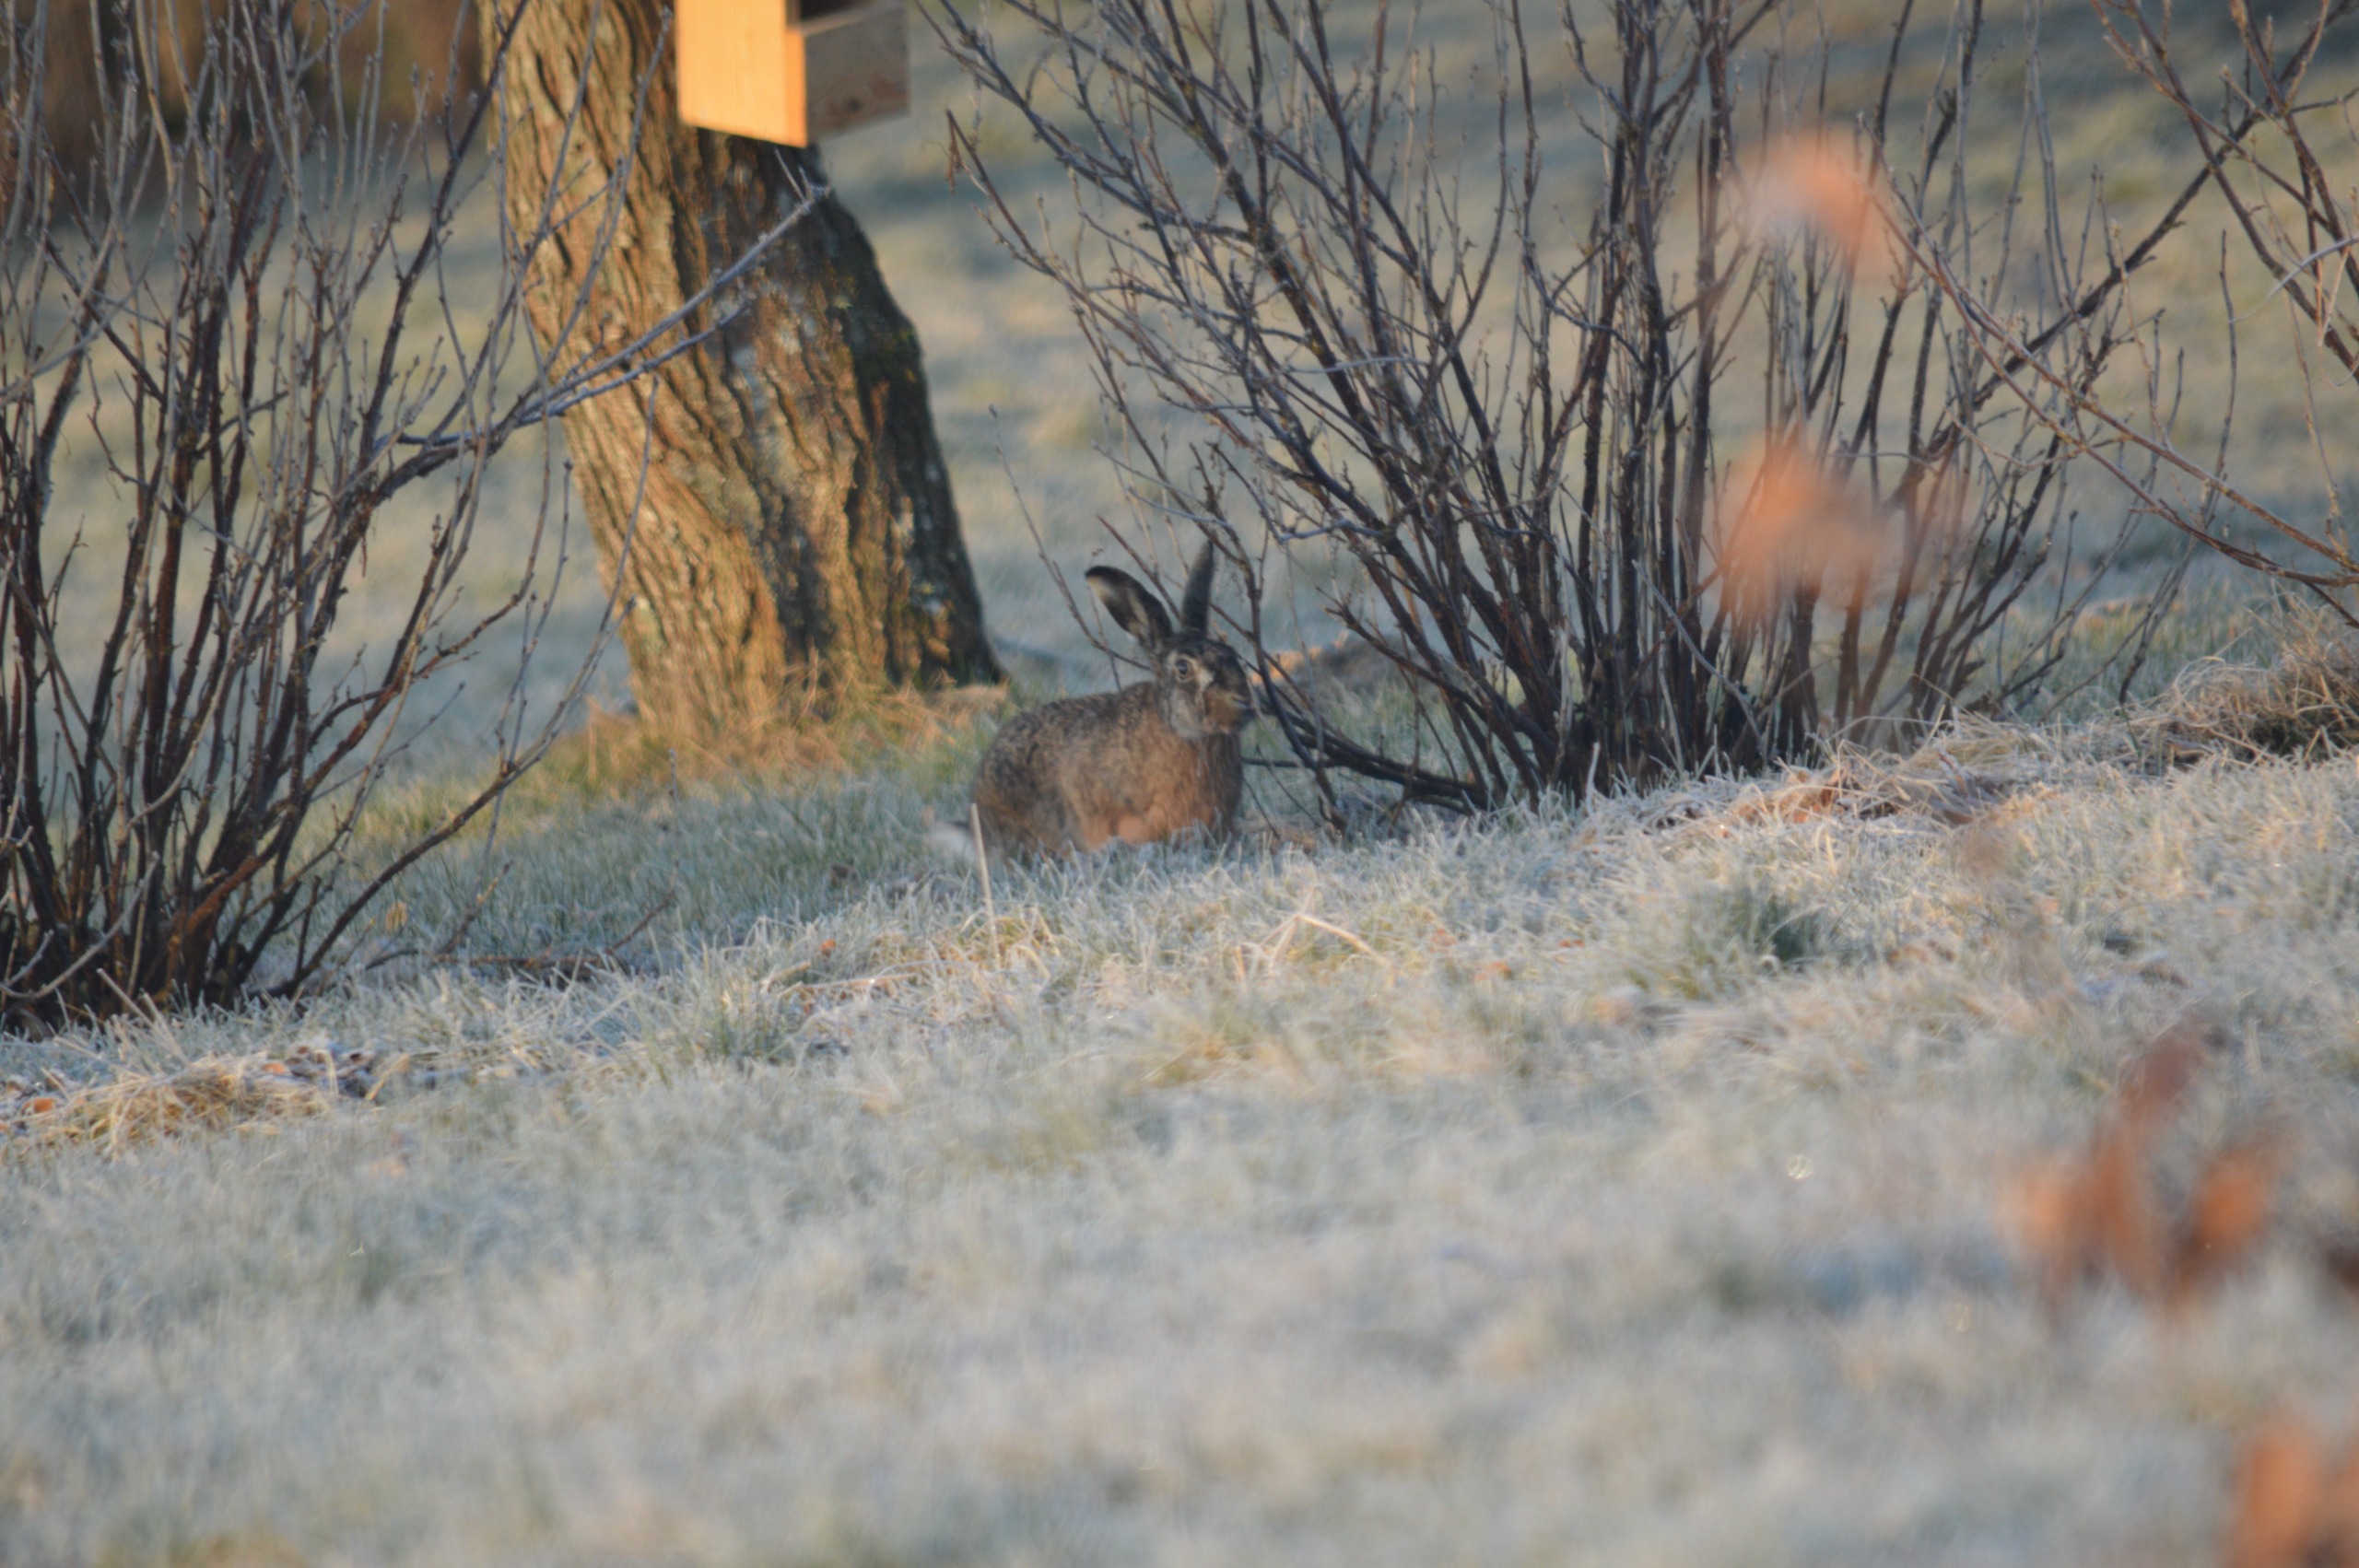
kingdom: Animalia
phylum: Chordata
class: Mammalia
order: Lagomorpha
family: Leporidae
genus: Lepus
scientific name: Lepus europaeus
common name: Hare
